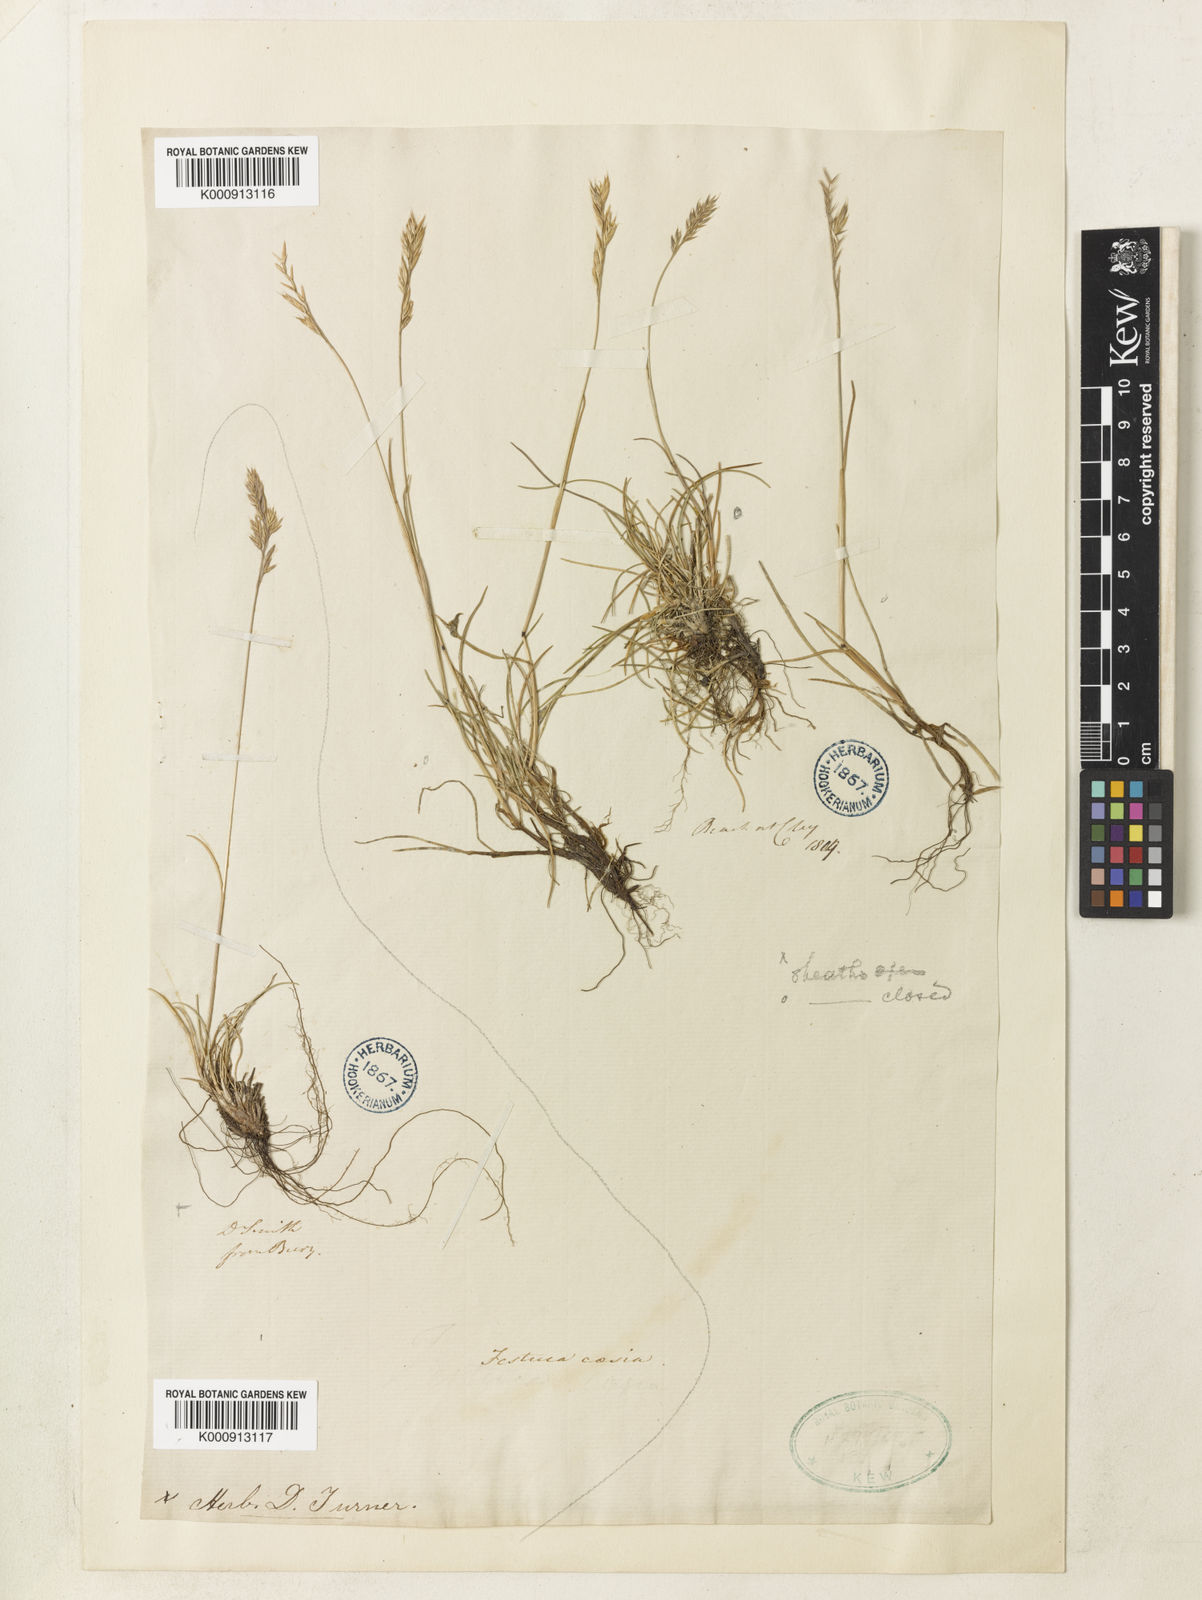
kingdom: Plantae
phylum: Tracheophyta
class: Liliopsida
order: Poales
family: Poaceae
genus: Festuca
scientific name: Festuca longifolia
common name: Blue fescue
